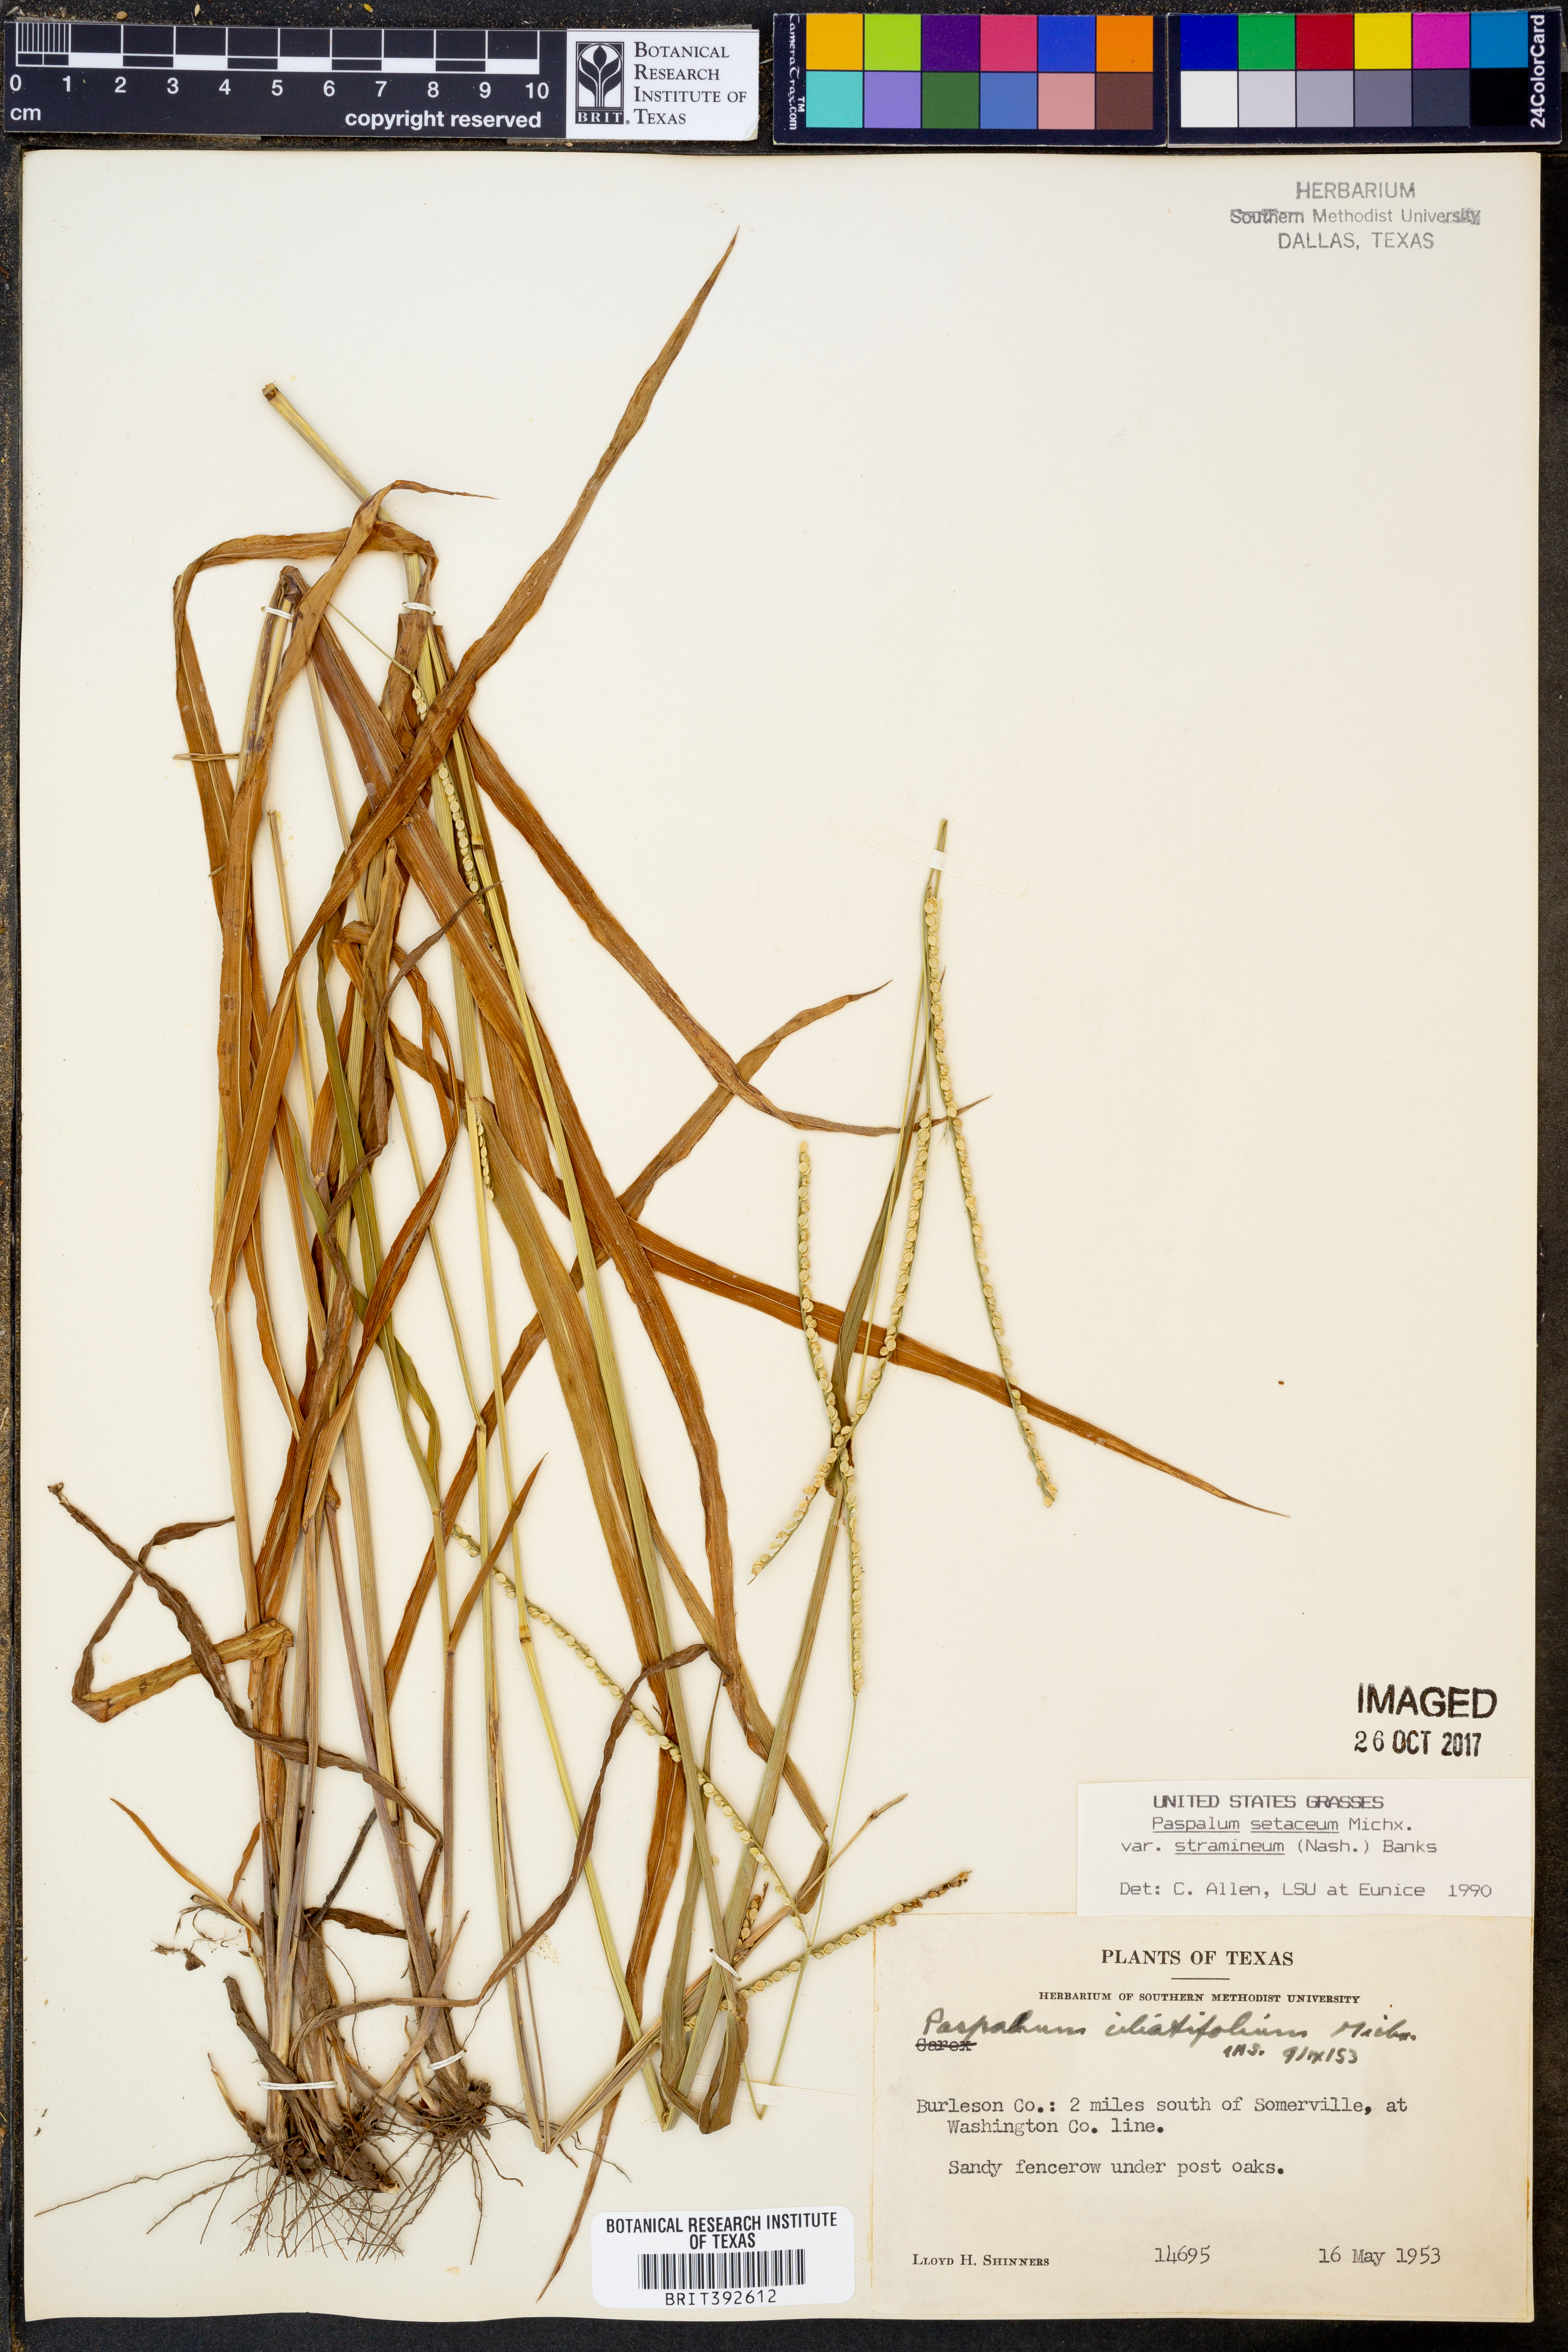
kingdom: Plantae
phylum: Tracheophyta
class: Liliopsida
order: Poales
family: Poaceae
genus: Paspalum
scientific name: Paspalum setaceum
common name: Slender paspalum
